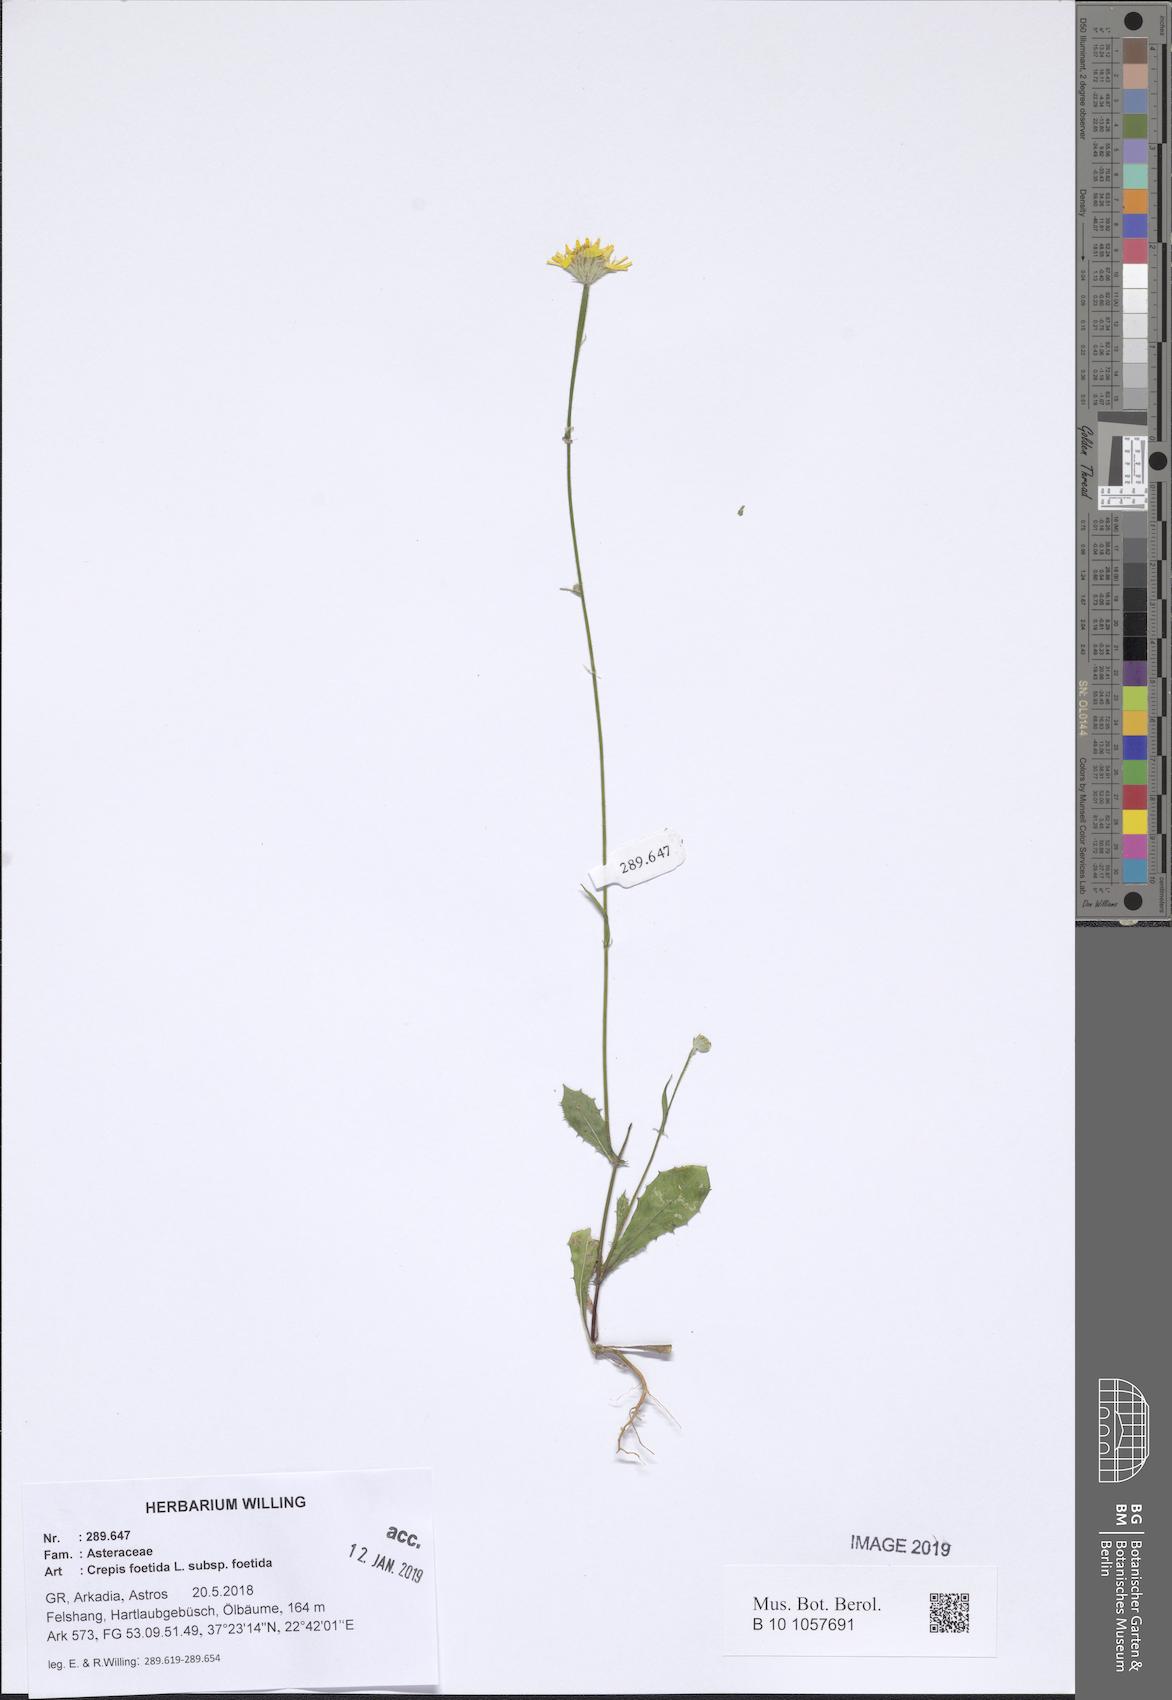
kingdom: Plantae
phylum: Tracheophyta
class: Magnoliopsida
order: Asterales
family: Asteraceae
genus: Crepis
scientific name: Crepis foetida
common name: Stinking hawk's-beard
